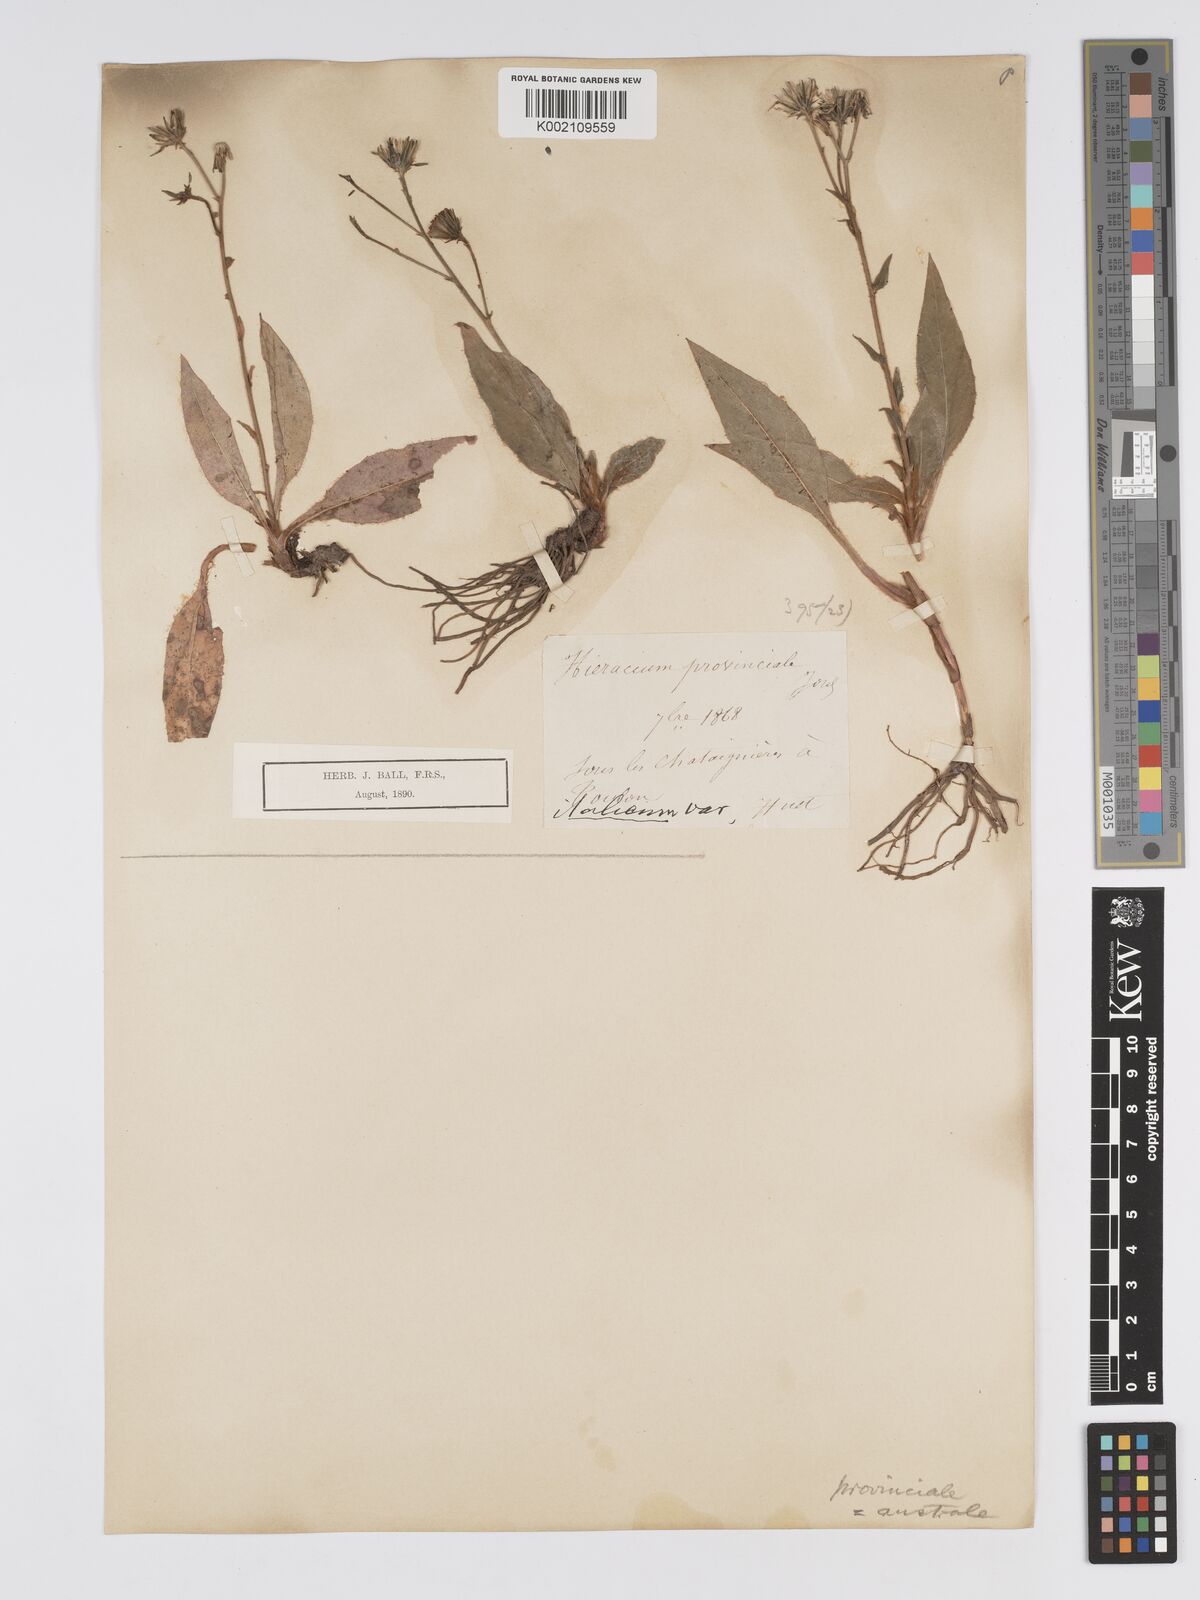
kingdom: Plantae
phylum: Tracheophyta
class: Magnoliopsida
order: Asterales
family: Asteraceae
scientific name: Asteraceae
